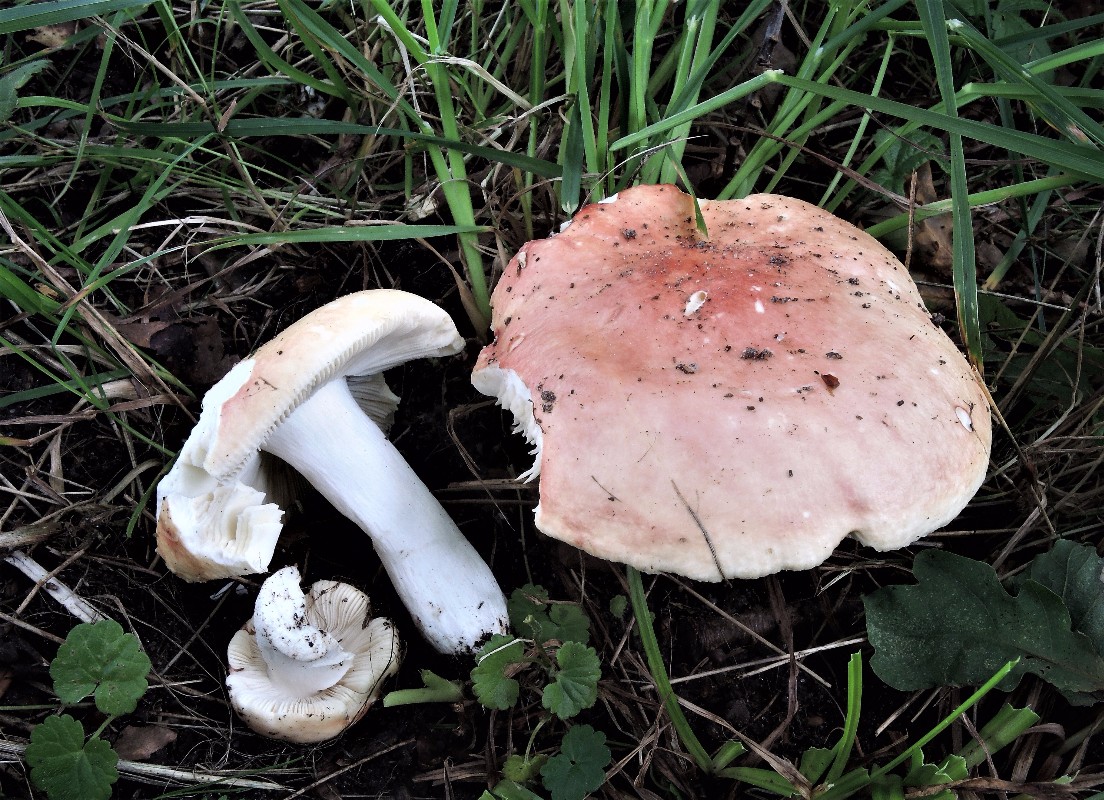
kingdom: Fungi
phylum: Basidiomycota
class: Agaricomycetes
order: Russulales
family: Russulaceae
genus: Russula
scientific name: Russula aurora
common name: rosa skørhat
